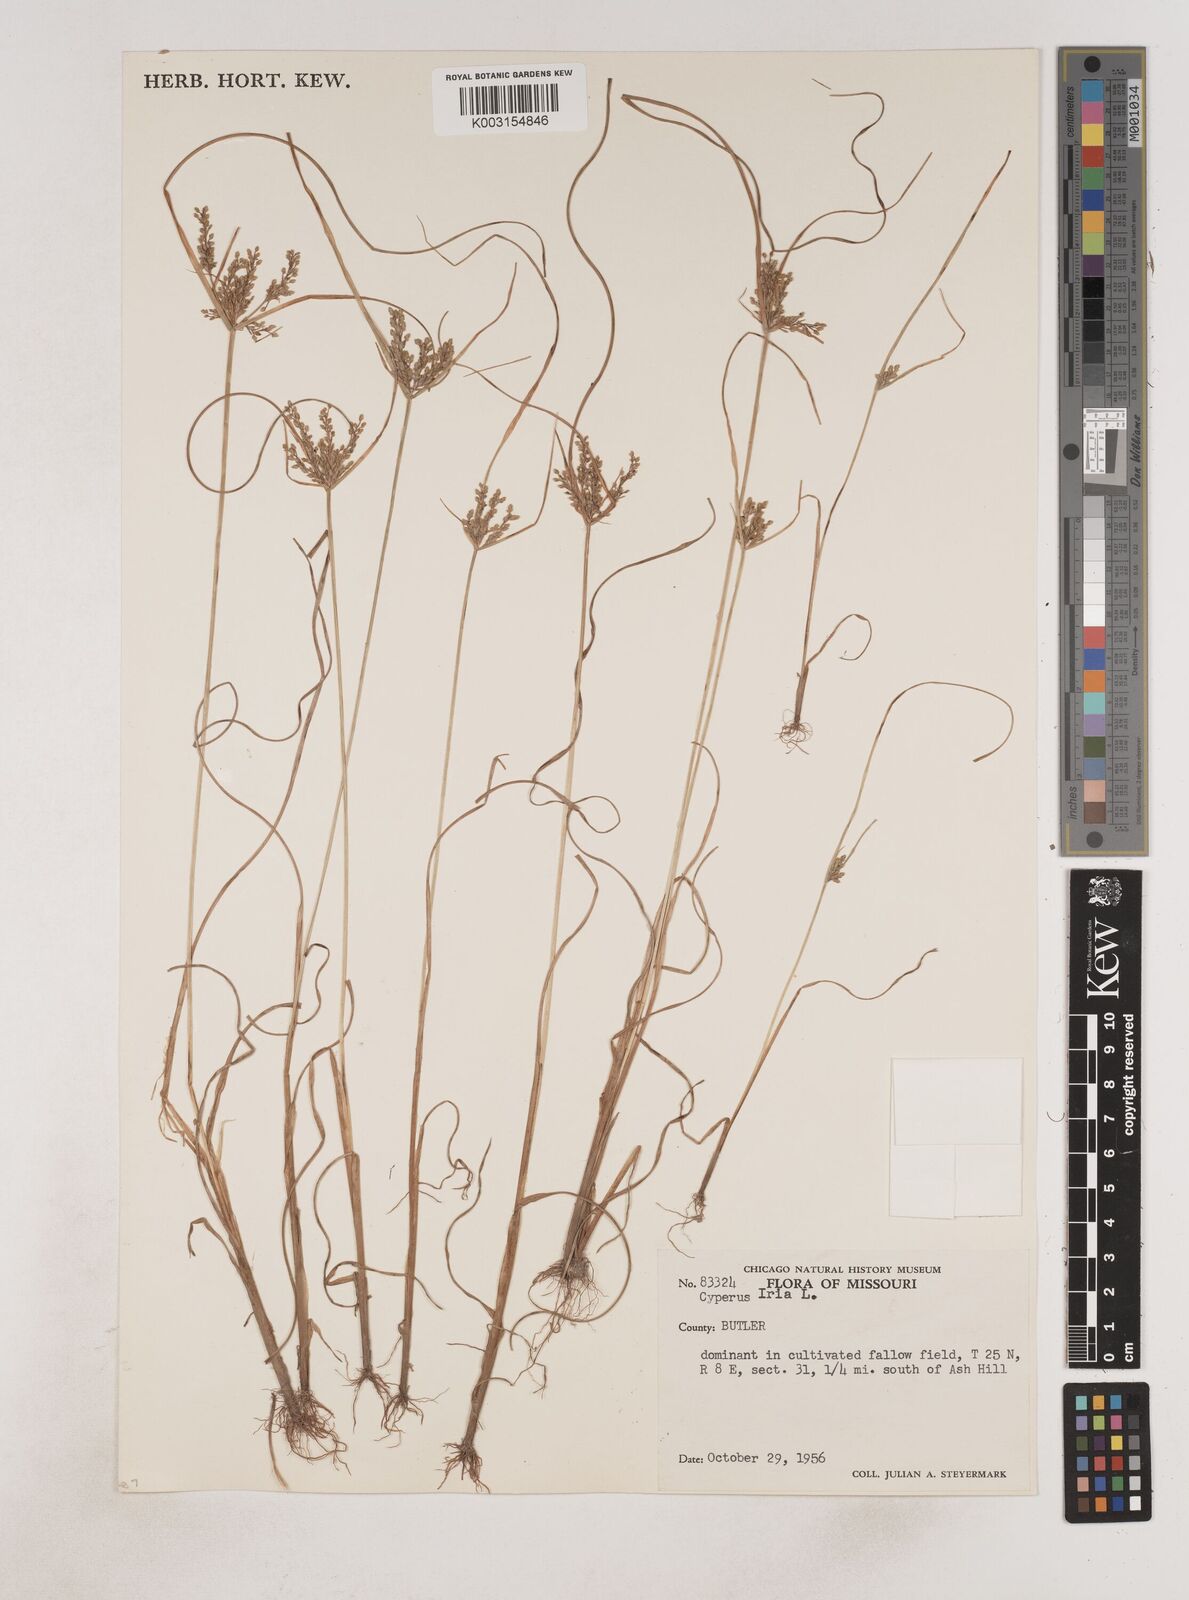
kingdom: Plantae
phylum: Tracheophyta
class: Liliopsida
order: Poales
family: Cyperaceae
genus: Cyperus
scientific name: Cyperus iria
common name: Ricefield flatsedge
